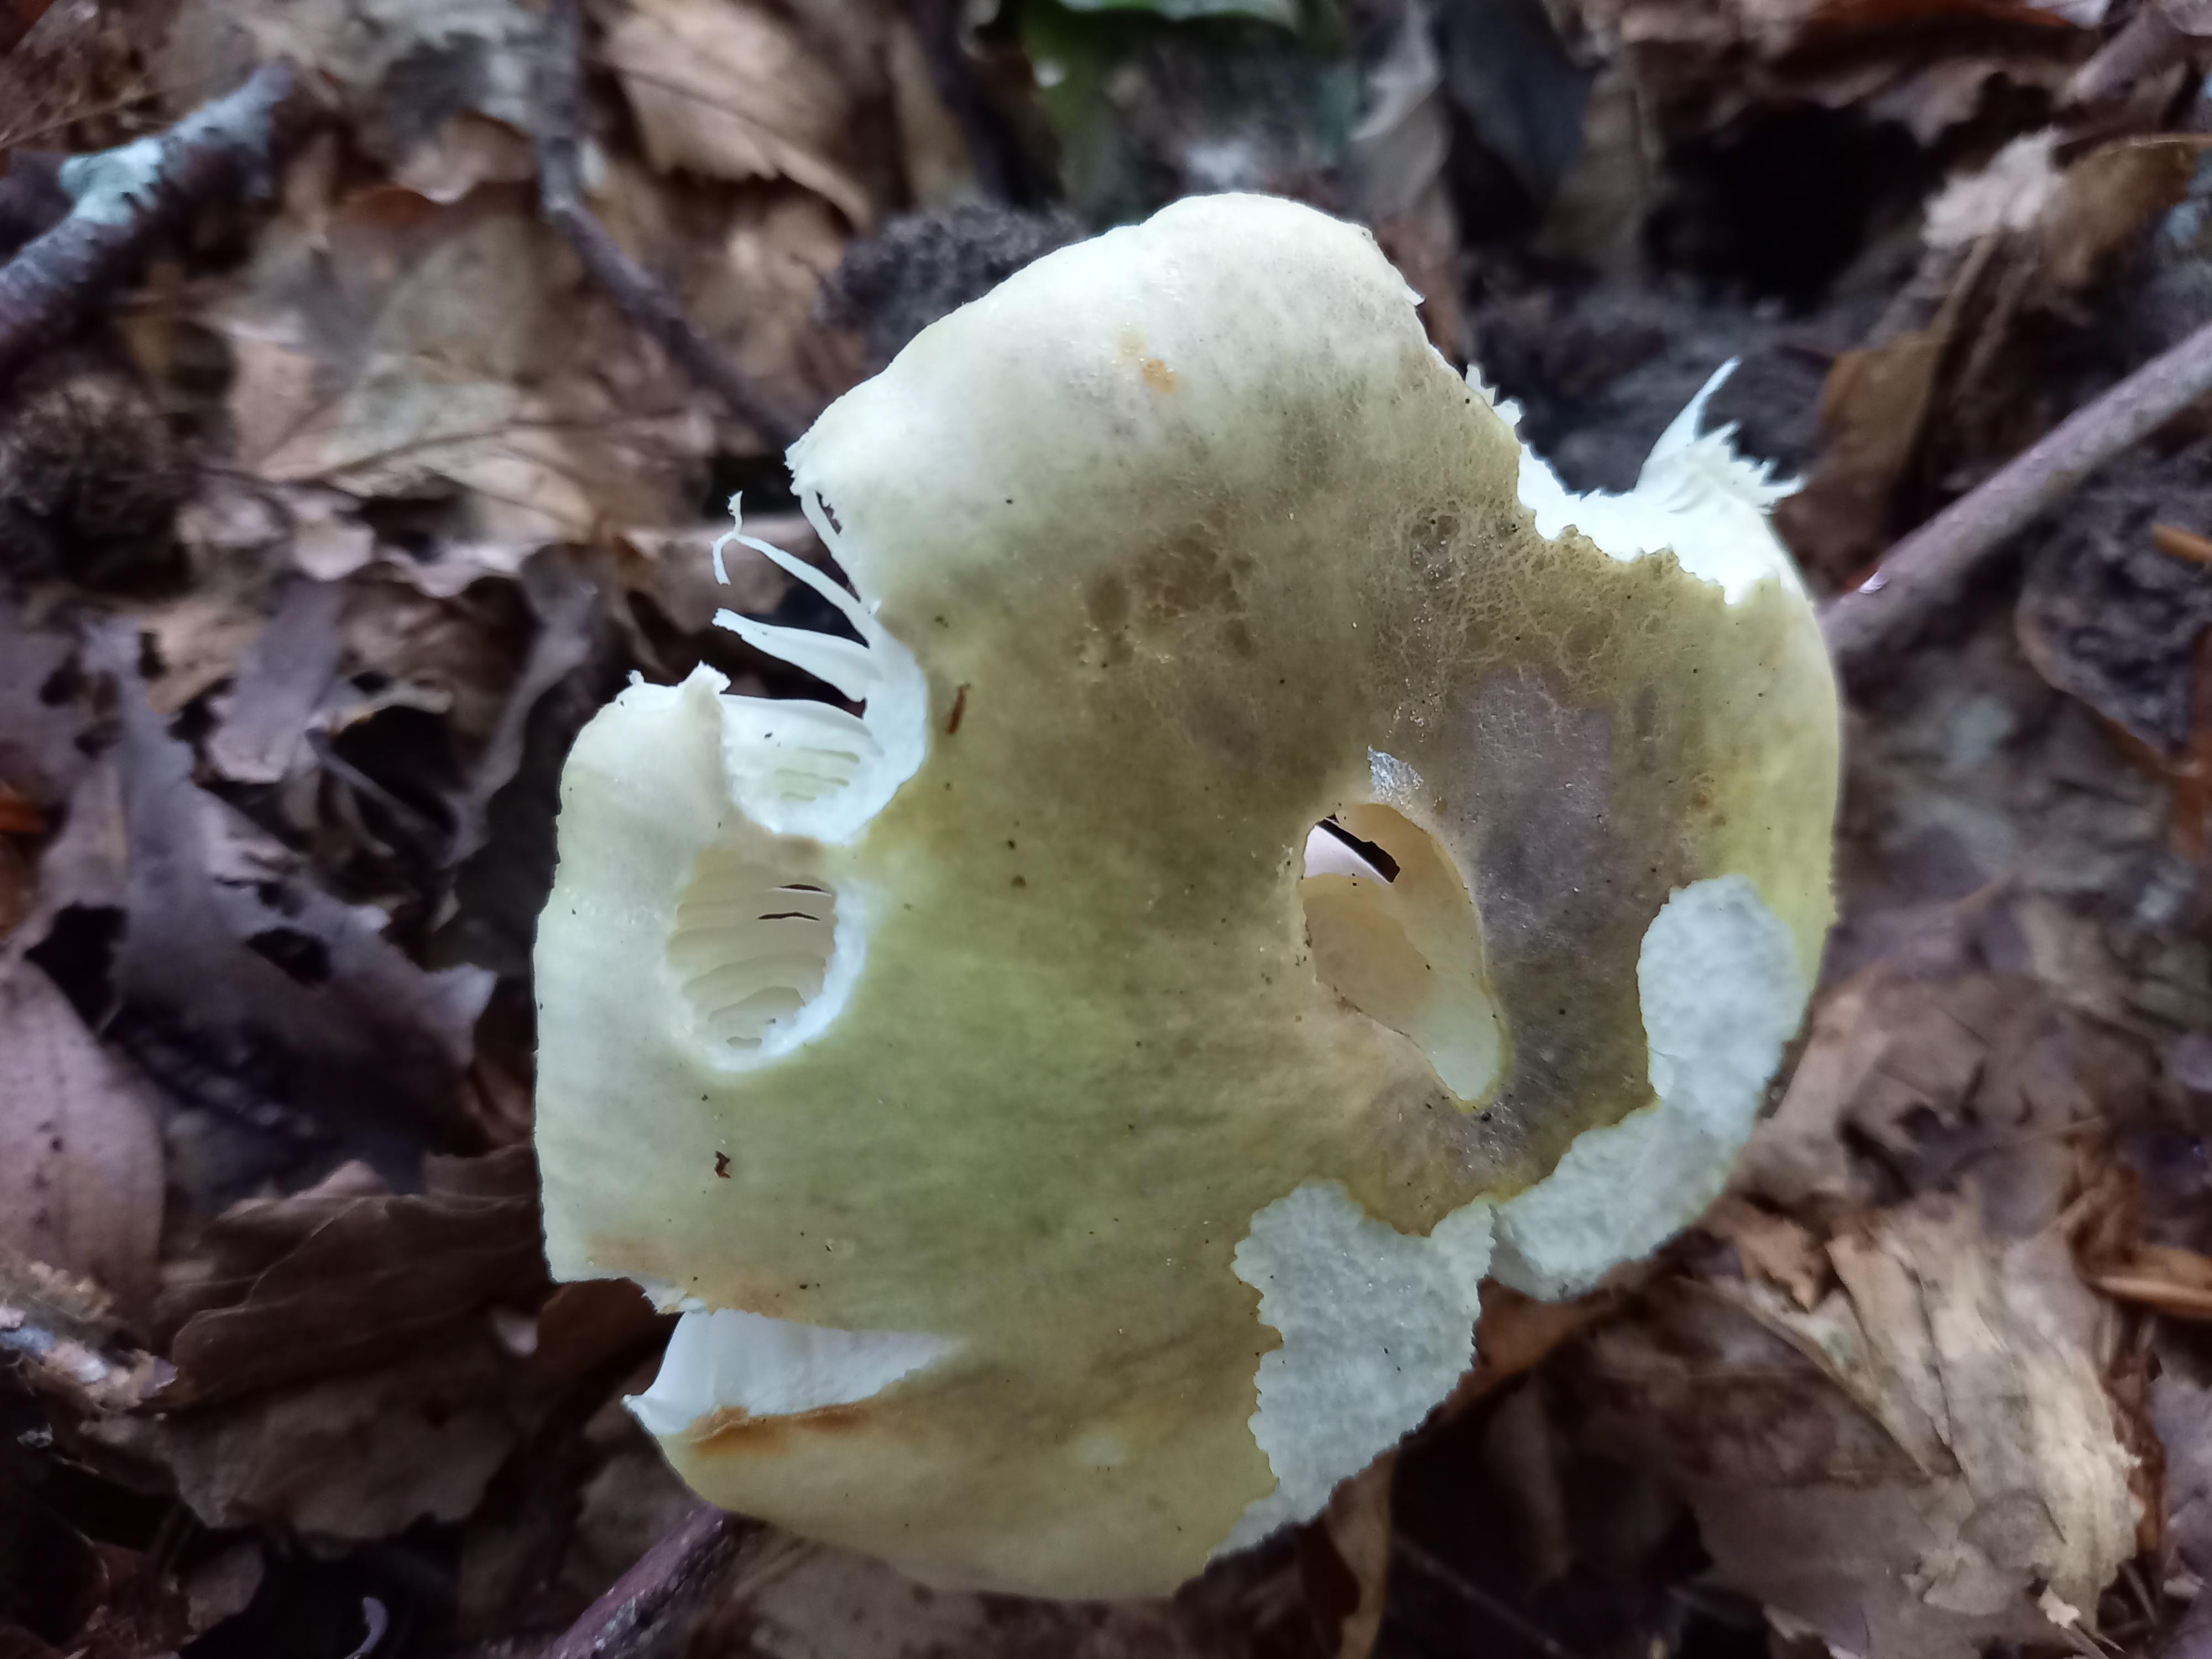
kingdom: Fungi
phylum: Basidiomycota
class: Agaricomycetes
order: Russulales
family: Russulaceae
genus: Russula
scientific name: Russula violeipes
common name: ferskengul skørhat
